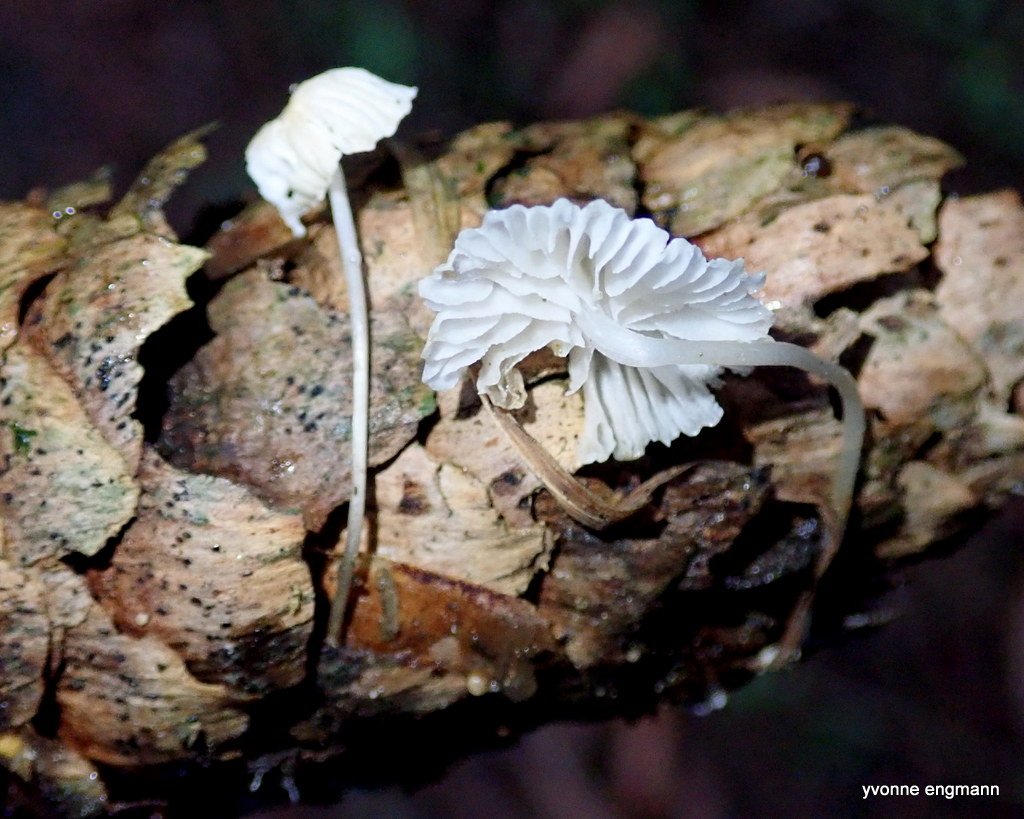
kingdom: Fungi
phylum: Basidiomycota
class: Agaricomycetes
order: Agaricales
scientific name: Agaricales
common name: champignonordenen
